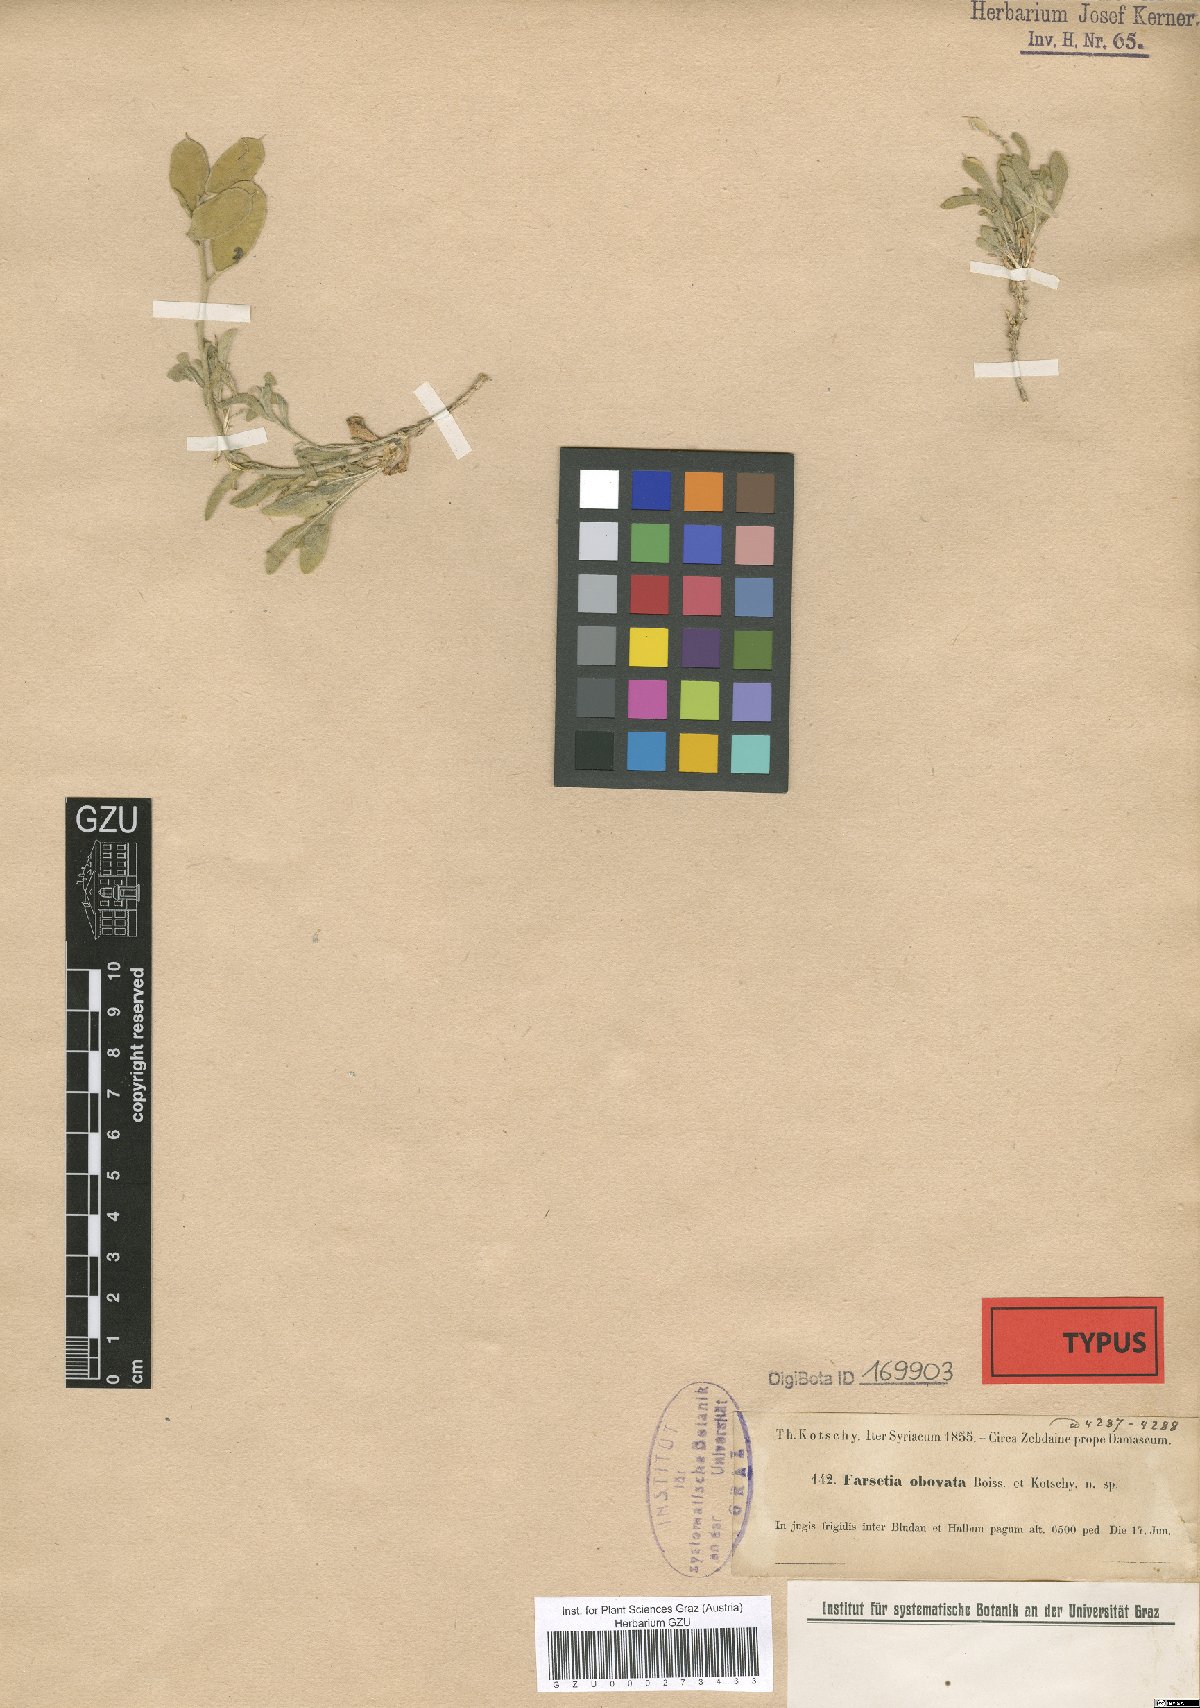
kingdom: Plantae
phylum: Tracheophyta
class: Magnoliopsida
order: Brassicales
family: Brassicaceae
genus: Acuston
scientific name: Acuston petalodes
